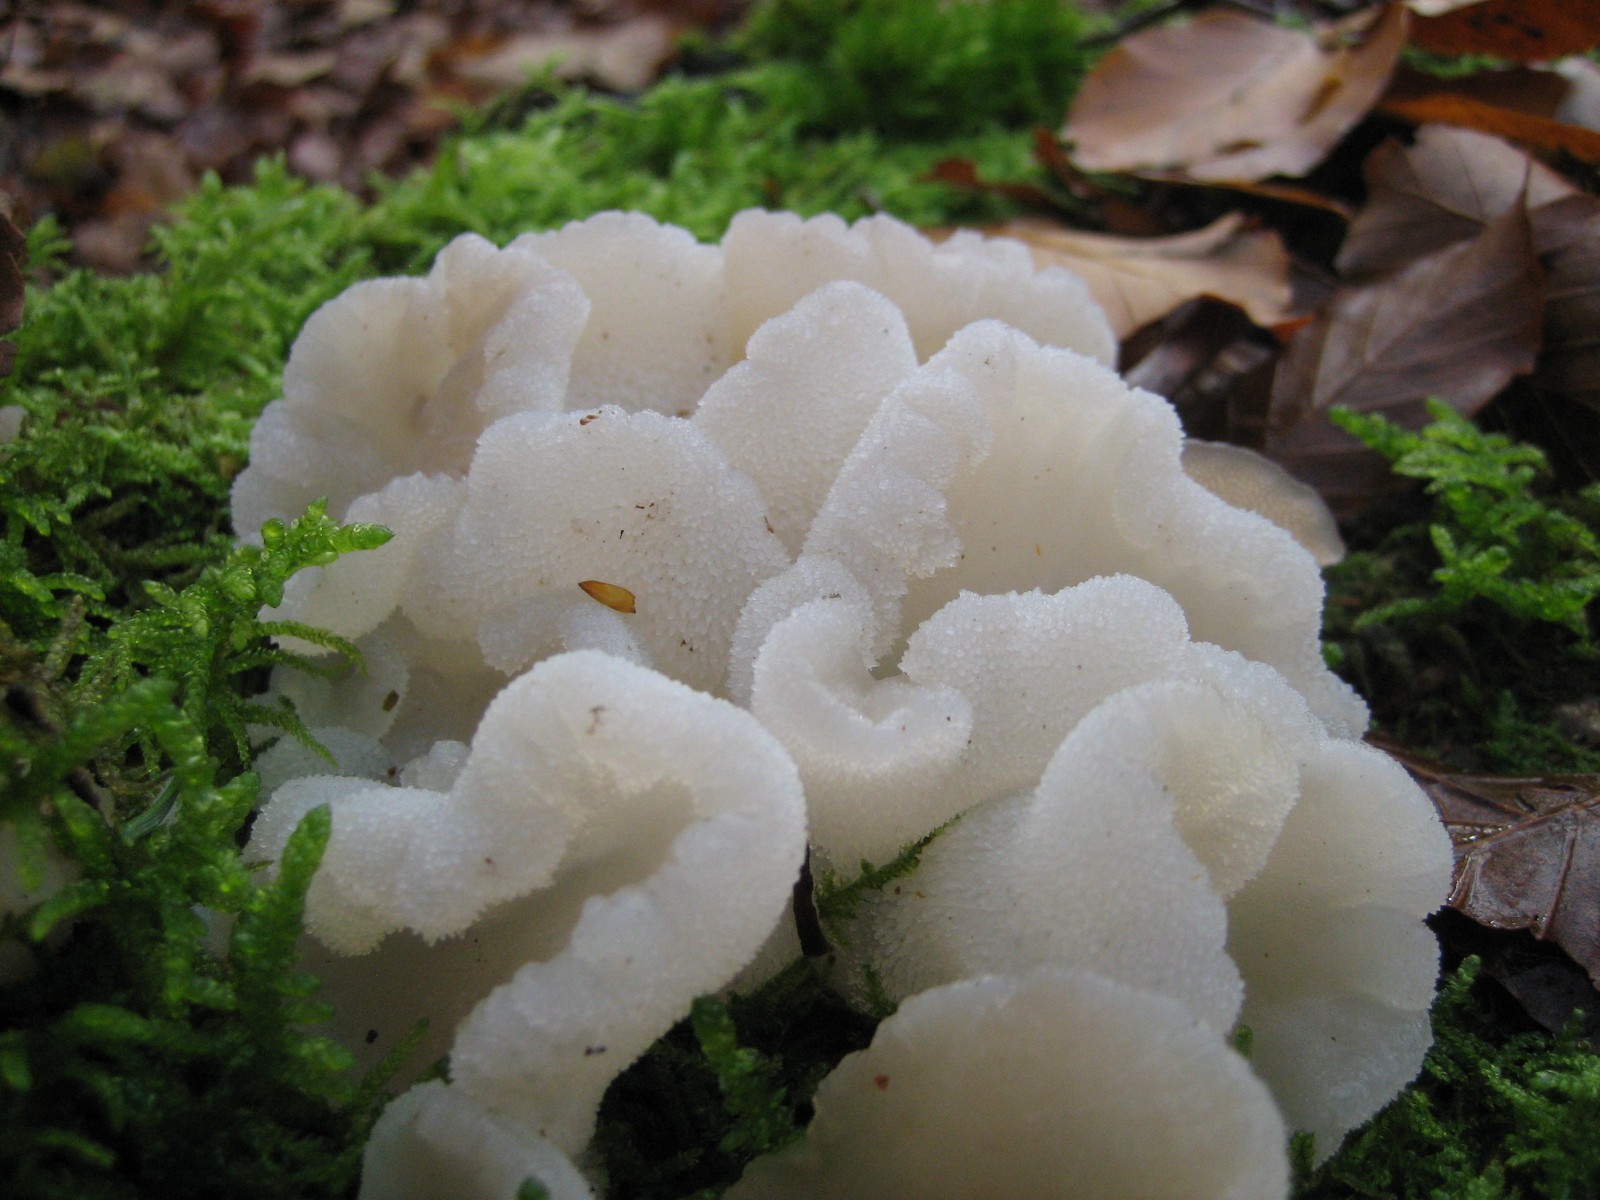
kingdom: Fungi
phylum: Basidiomycota
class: Tremellomycetes
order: Tremellales
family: Exidiaceae
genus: Pseudohydnum
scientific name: Pseudohydnum
